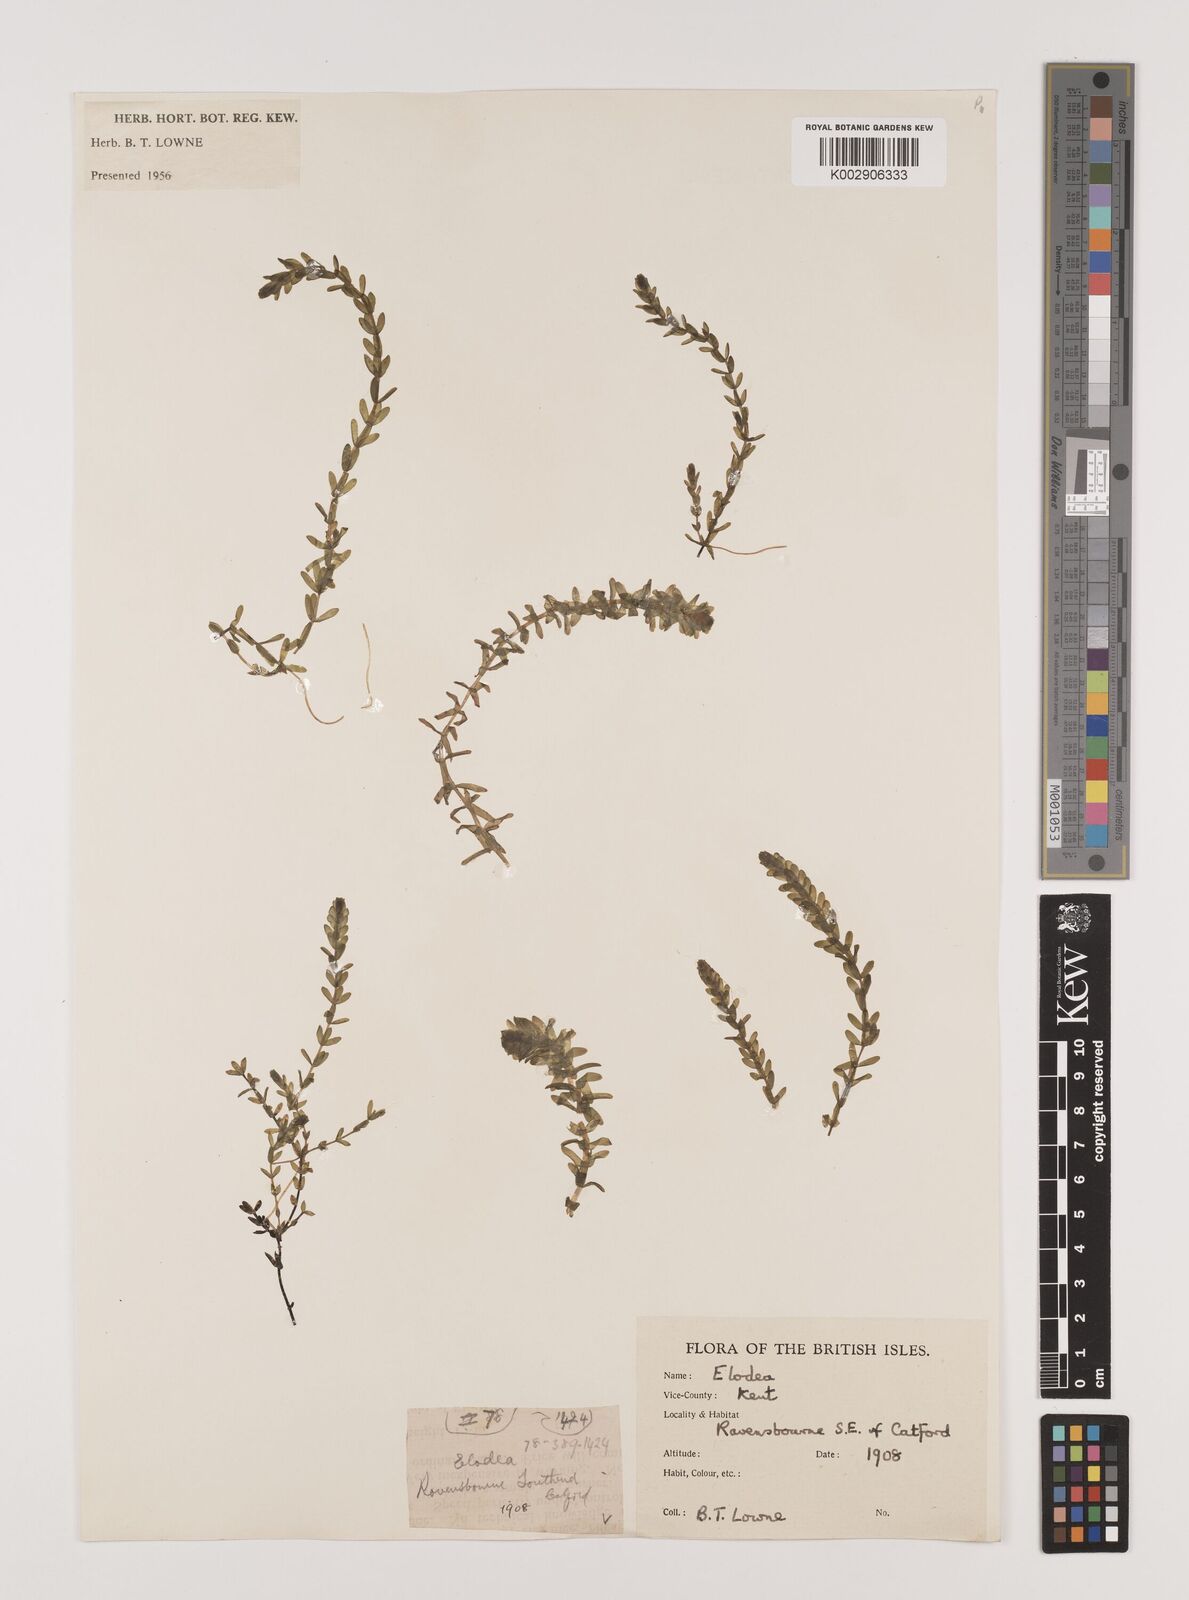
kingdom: Plantae
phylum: Tracheophyta
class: Liliopsida
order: Alismatales
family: Hydrocharitaceae
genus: Elodea
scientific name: Elodea canadensis
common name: Canadian waterweed
